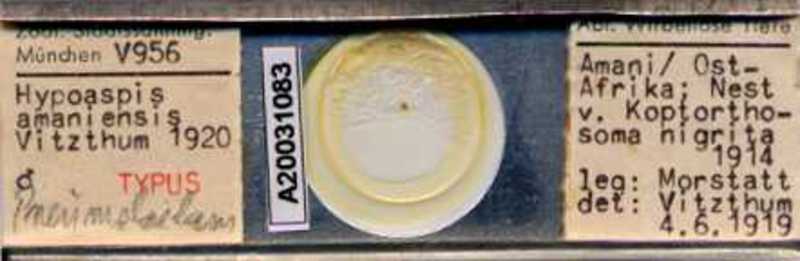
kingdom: Animalia
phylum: Arthropoda
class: Arachnida
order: Mesostigmata
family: Laelapidae
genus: Pneumolaelaps
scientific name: Pneumolaelaps
